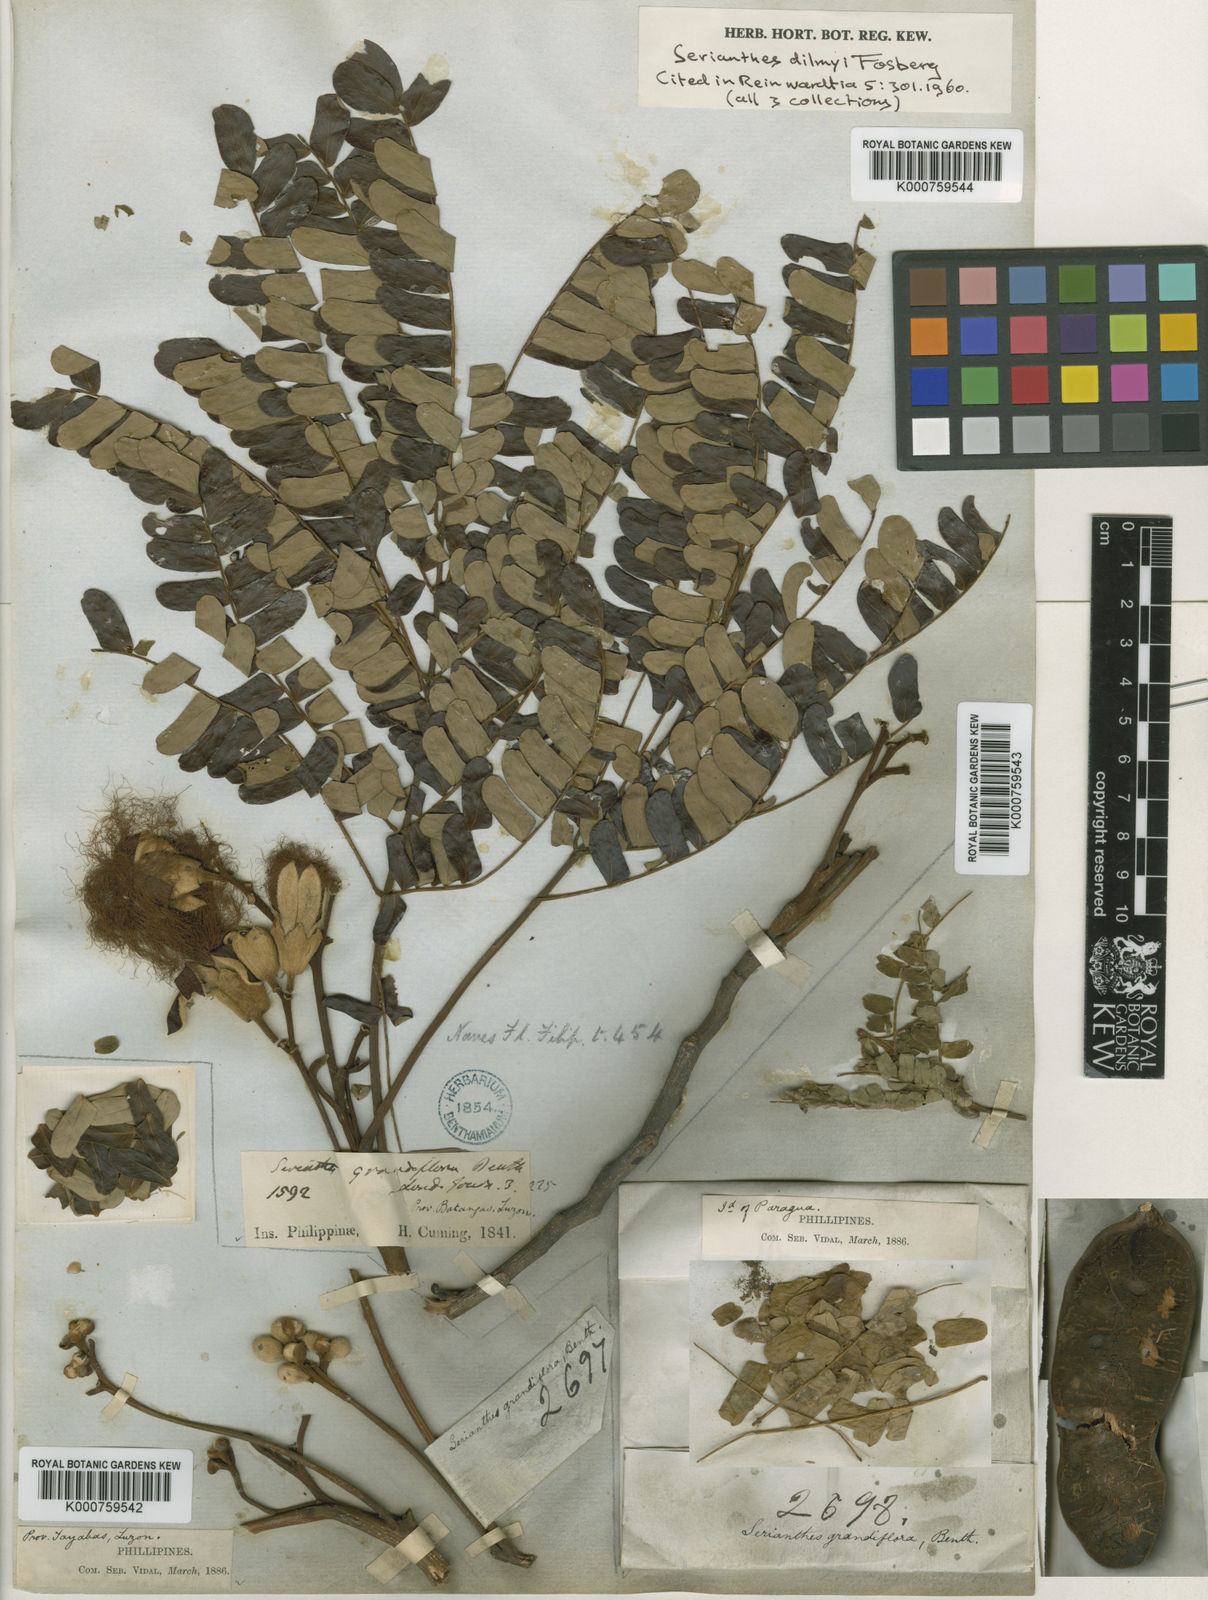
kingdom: Plantae
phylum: Tracheophyta
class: Magnoliopsida
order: Fabales
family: Fabaceae
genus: Serianthes
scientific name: Serianthes grandiflora
